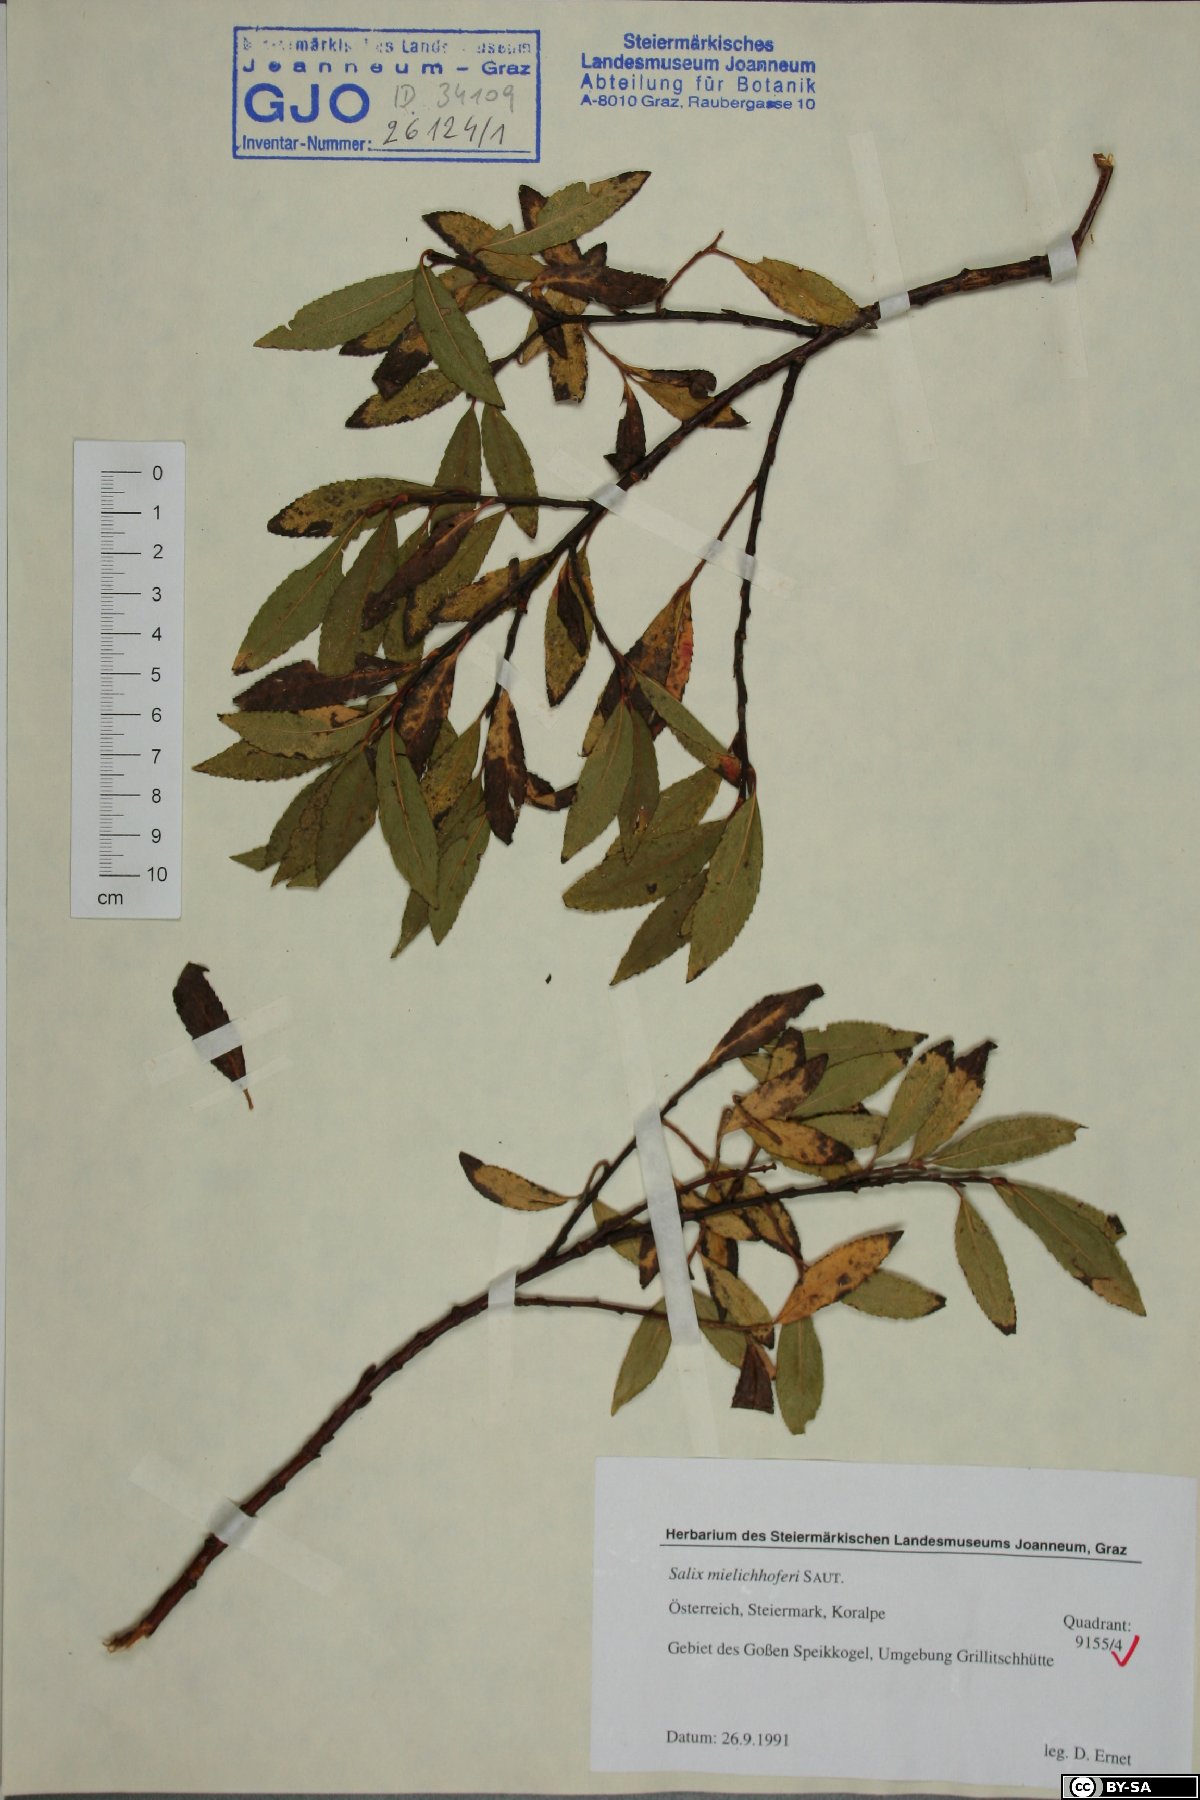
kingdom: Plantae
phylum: Tracheophyta
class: Magnoliopsida
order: Malpighiales
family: Salicaceae
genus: Salix
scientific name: Salix mielichhoferi
